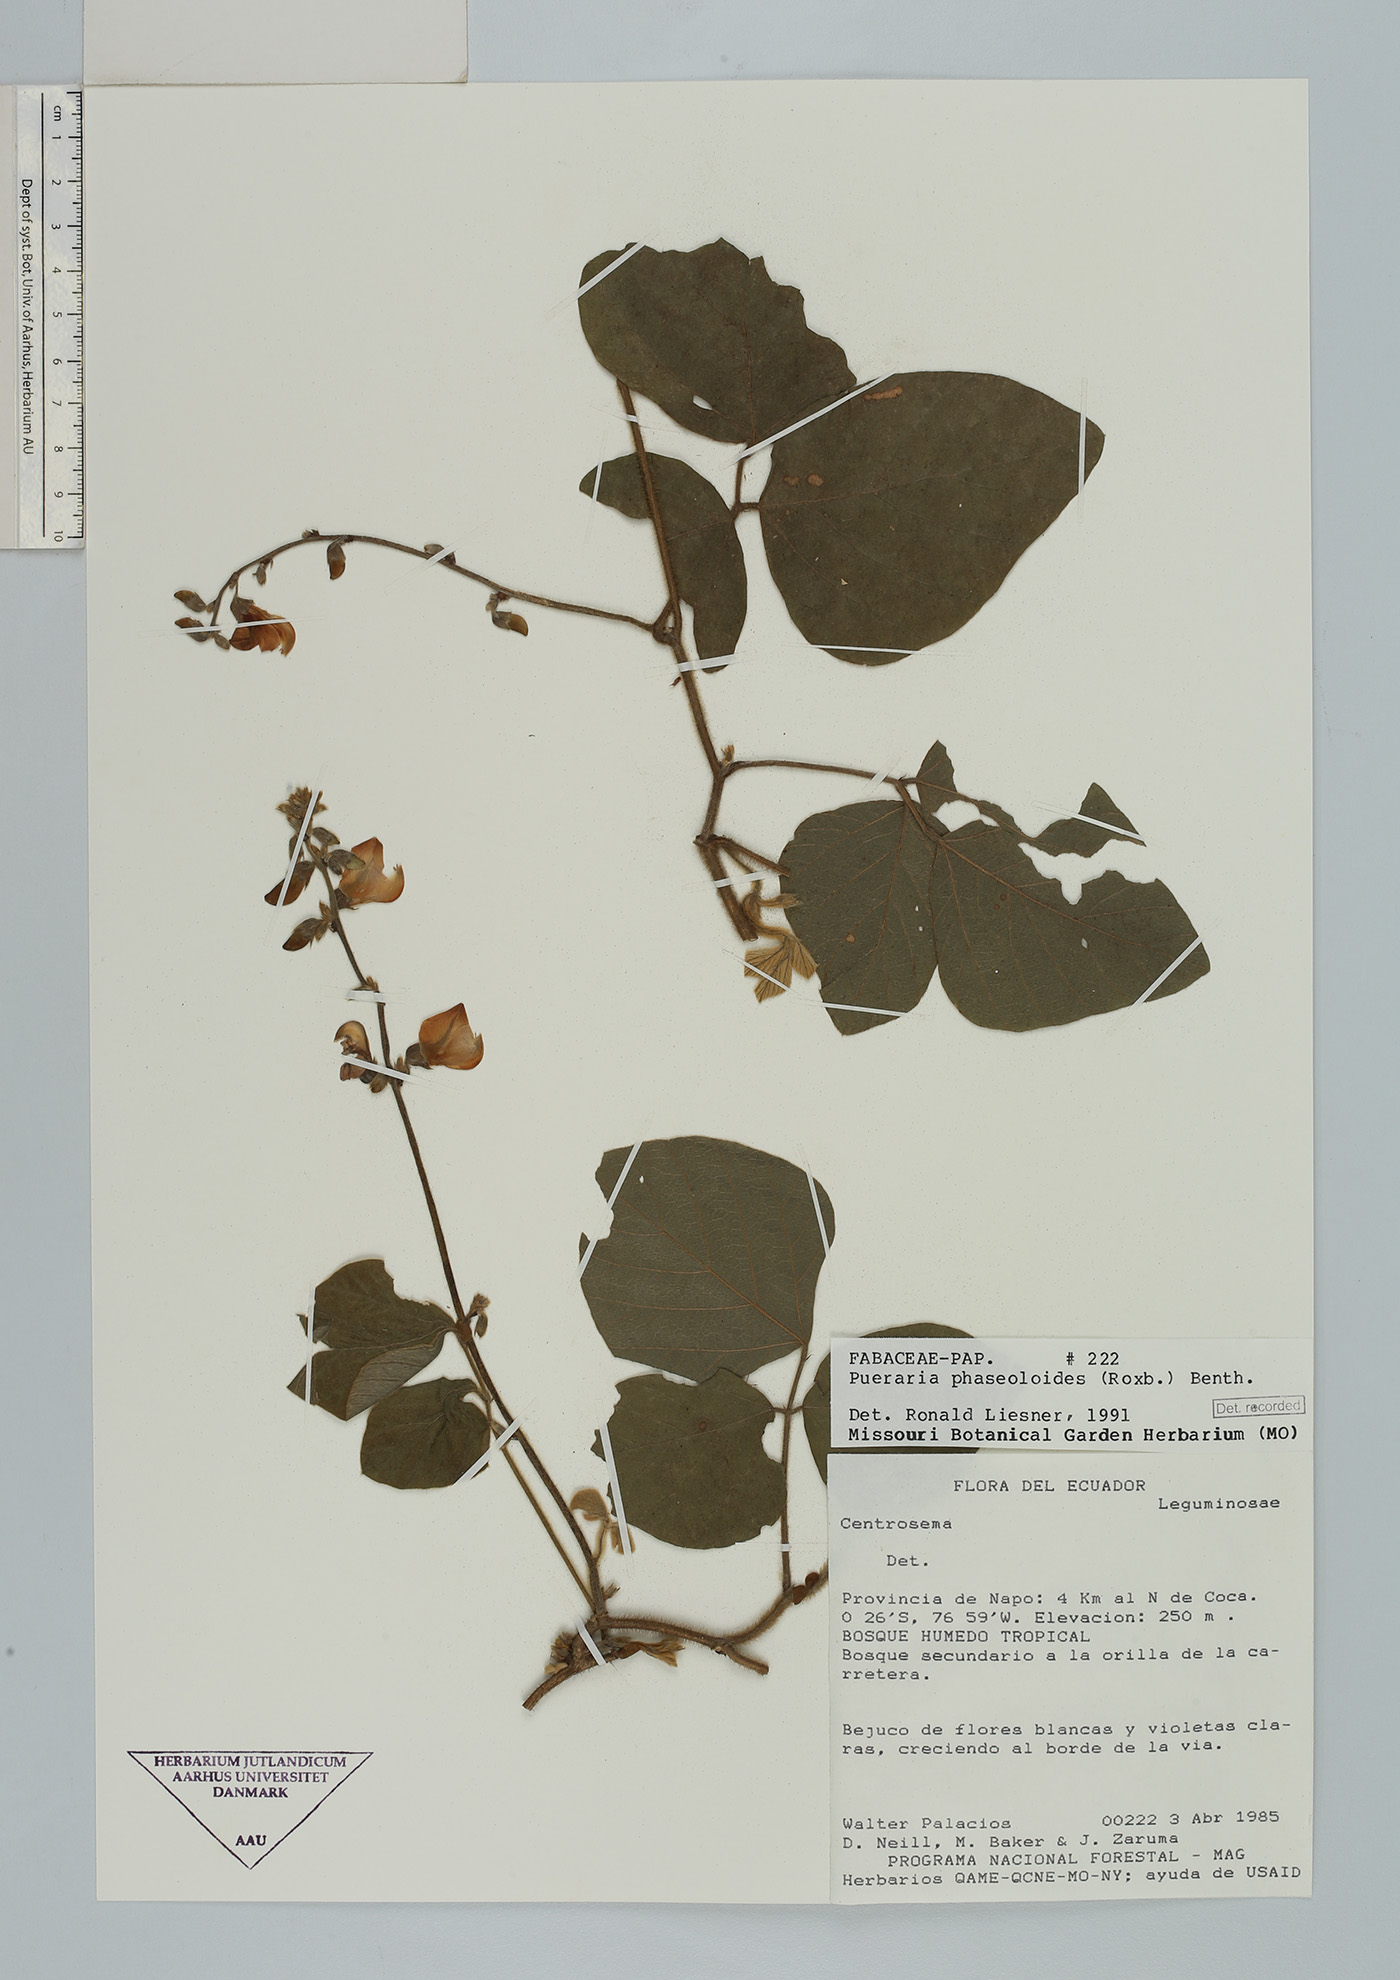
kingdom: Plantae
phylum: Tracheophyta
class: Magnoliopsida
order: Fabales
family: Fabaceae
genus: Neustanthus
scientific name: Neustanthus phaseoloides
